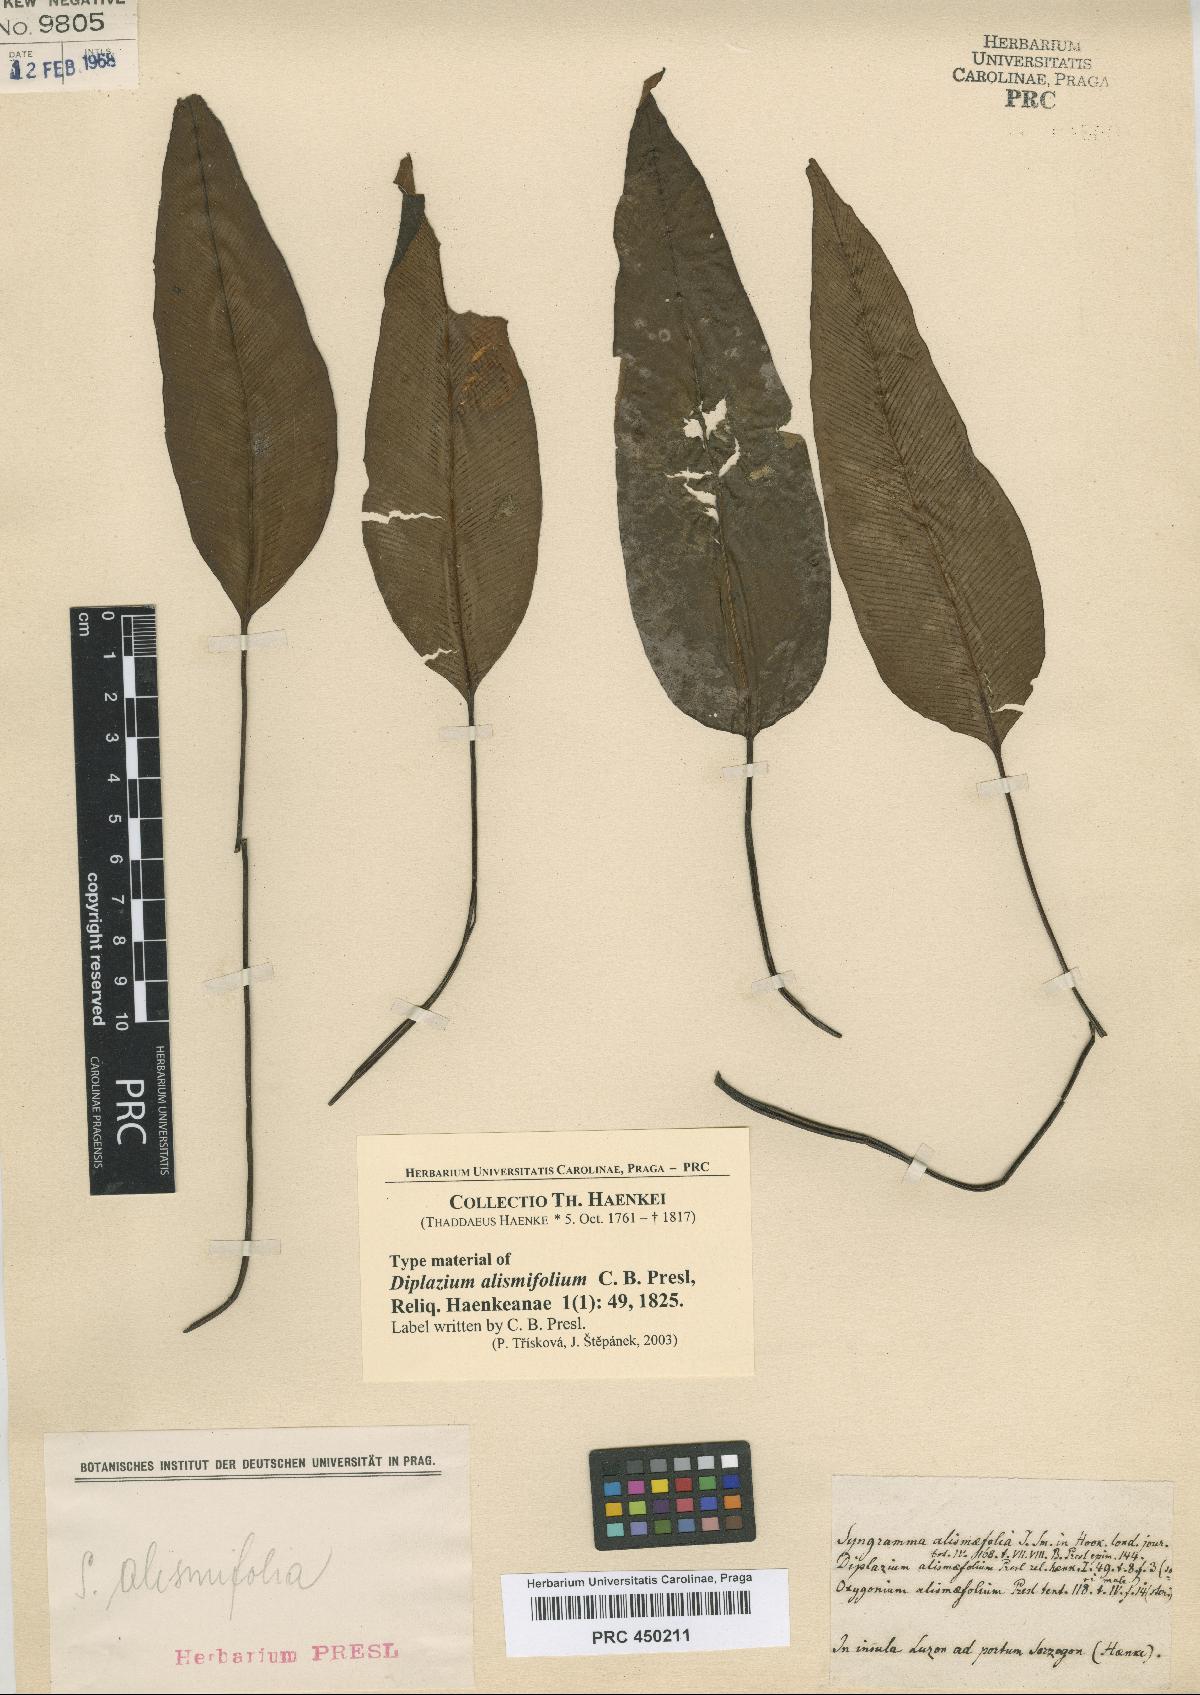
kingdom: Plantae
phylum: Tracheophyta
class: Polypodiopsida
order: Polypodiales
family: Pteridaceae
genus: Syngramma
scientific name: Syngramma alismifolia
